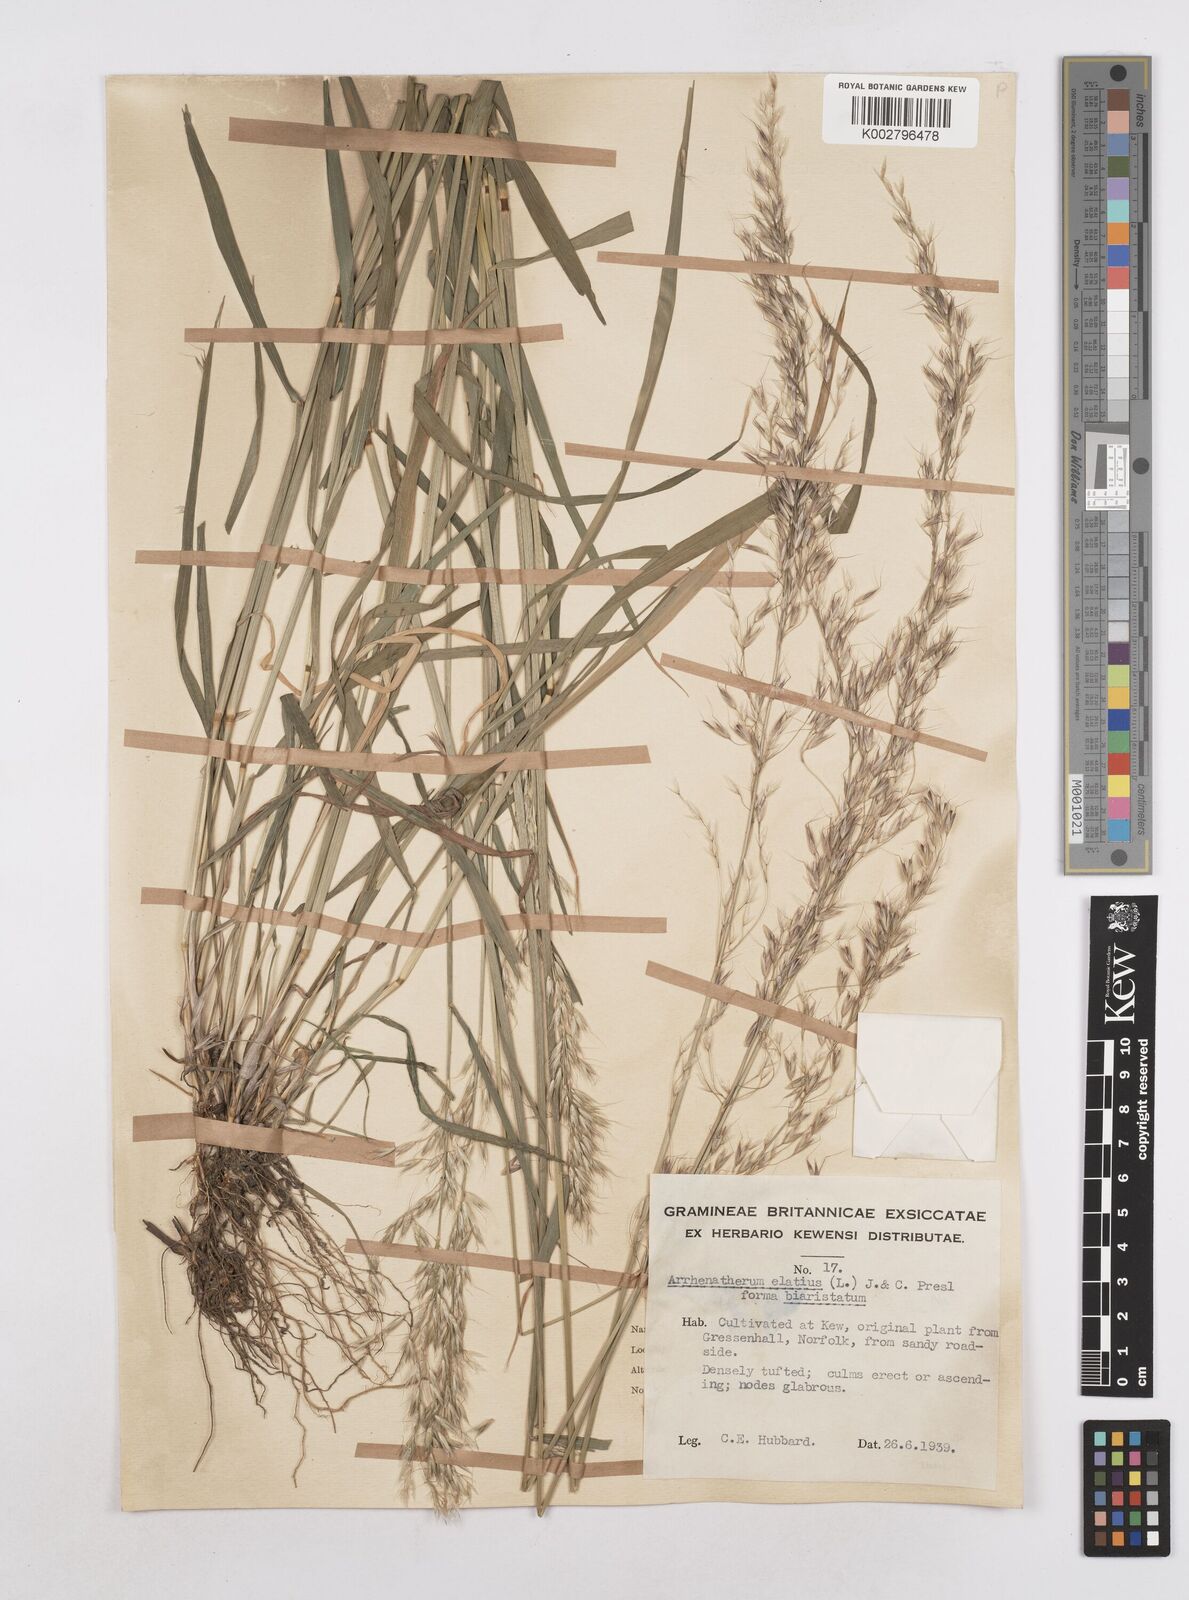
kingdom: Plantae
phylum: Tracheophyta
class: Liliopsida
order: Poales
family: Poaceae
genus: Arrhenatherum
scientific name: Arrhenatherum elatius
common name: Tall oatgrass
